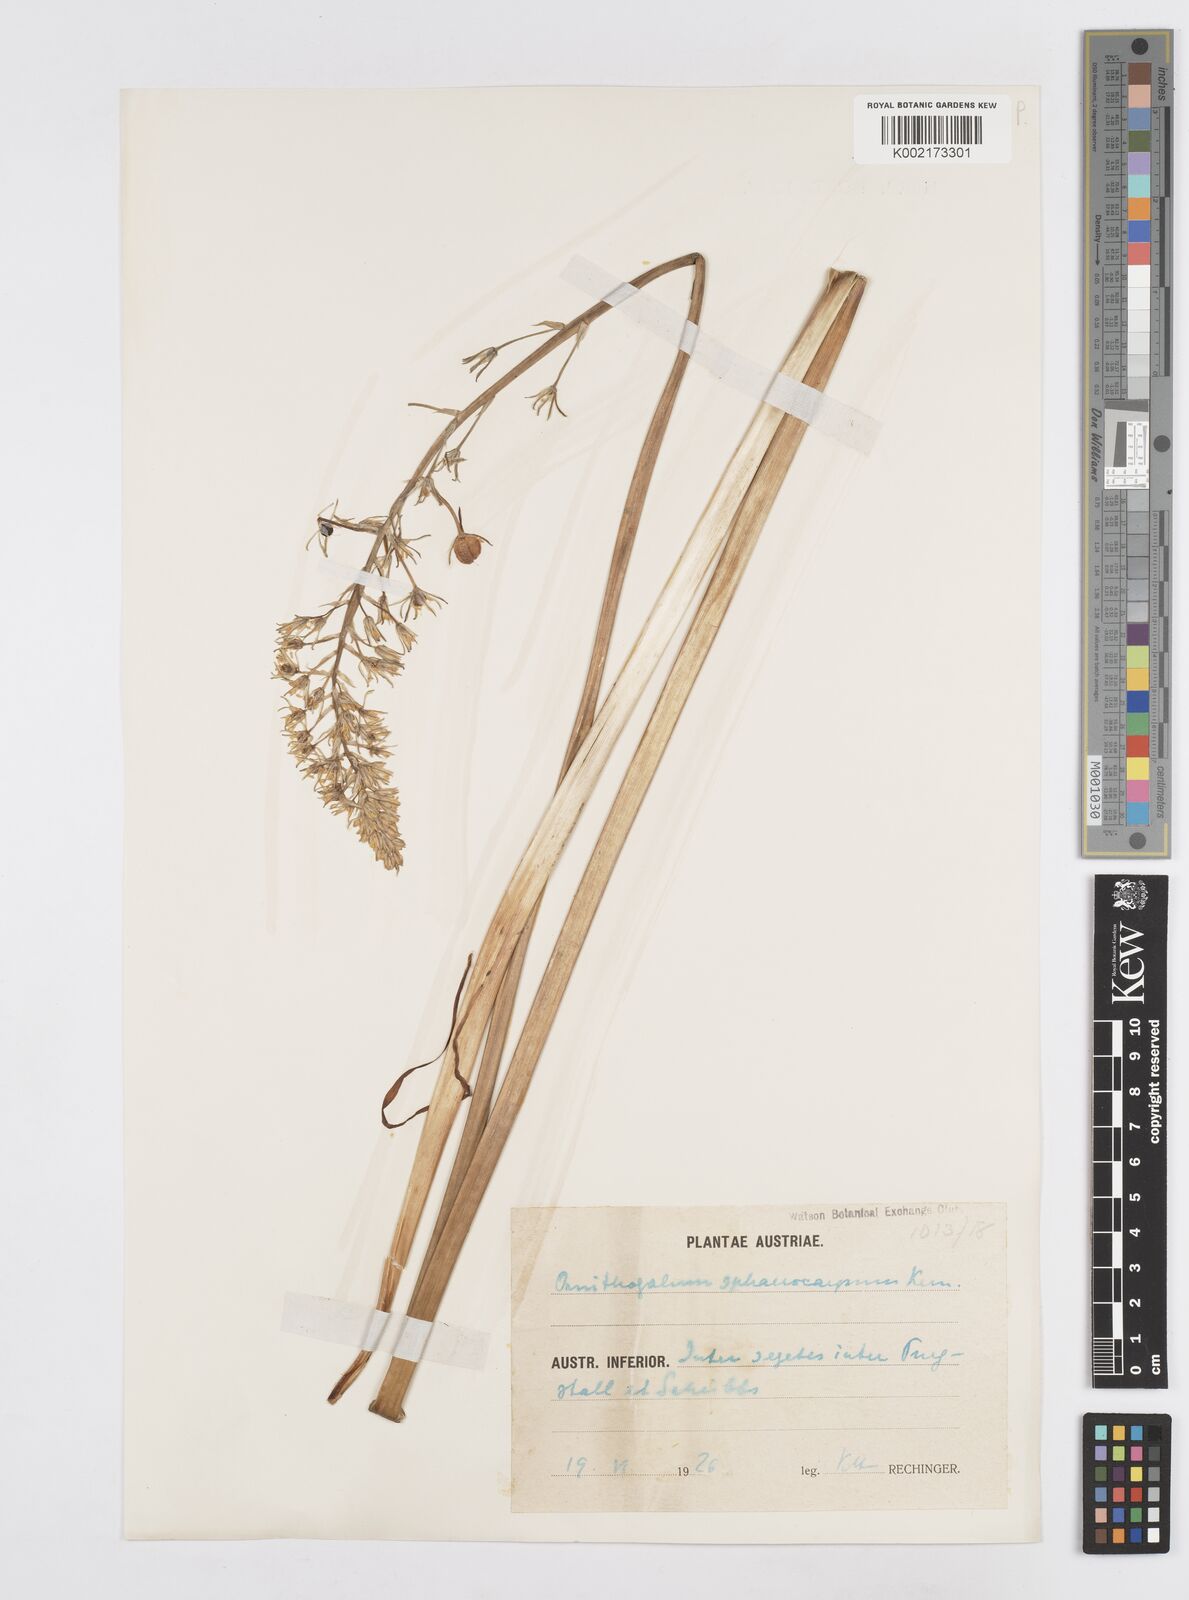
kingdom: Plantae
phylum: Tracheophyta
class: Liliopsida
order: Asparagales
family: Asparagaceae
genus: Ornithogalum
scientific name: Ornithogalum sphaerocarpum
